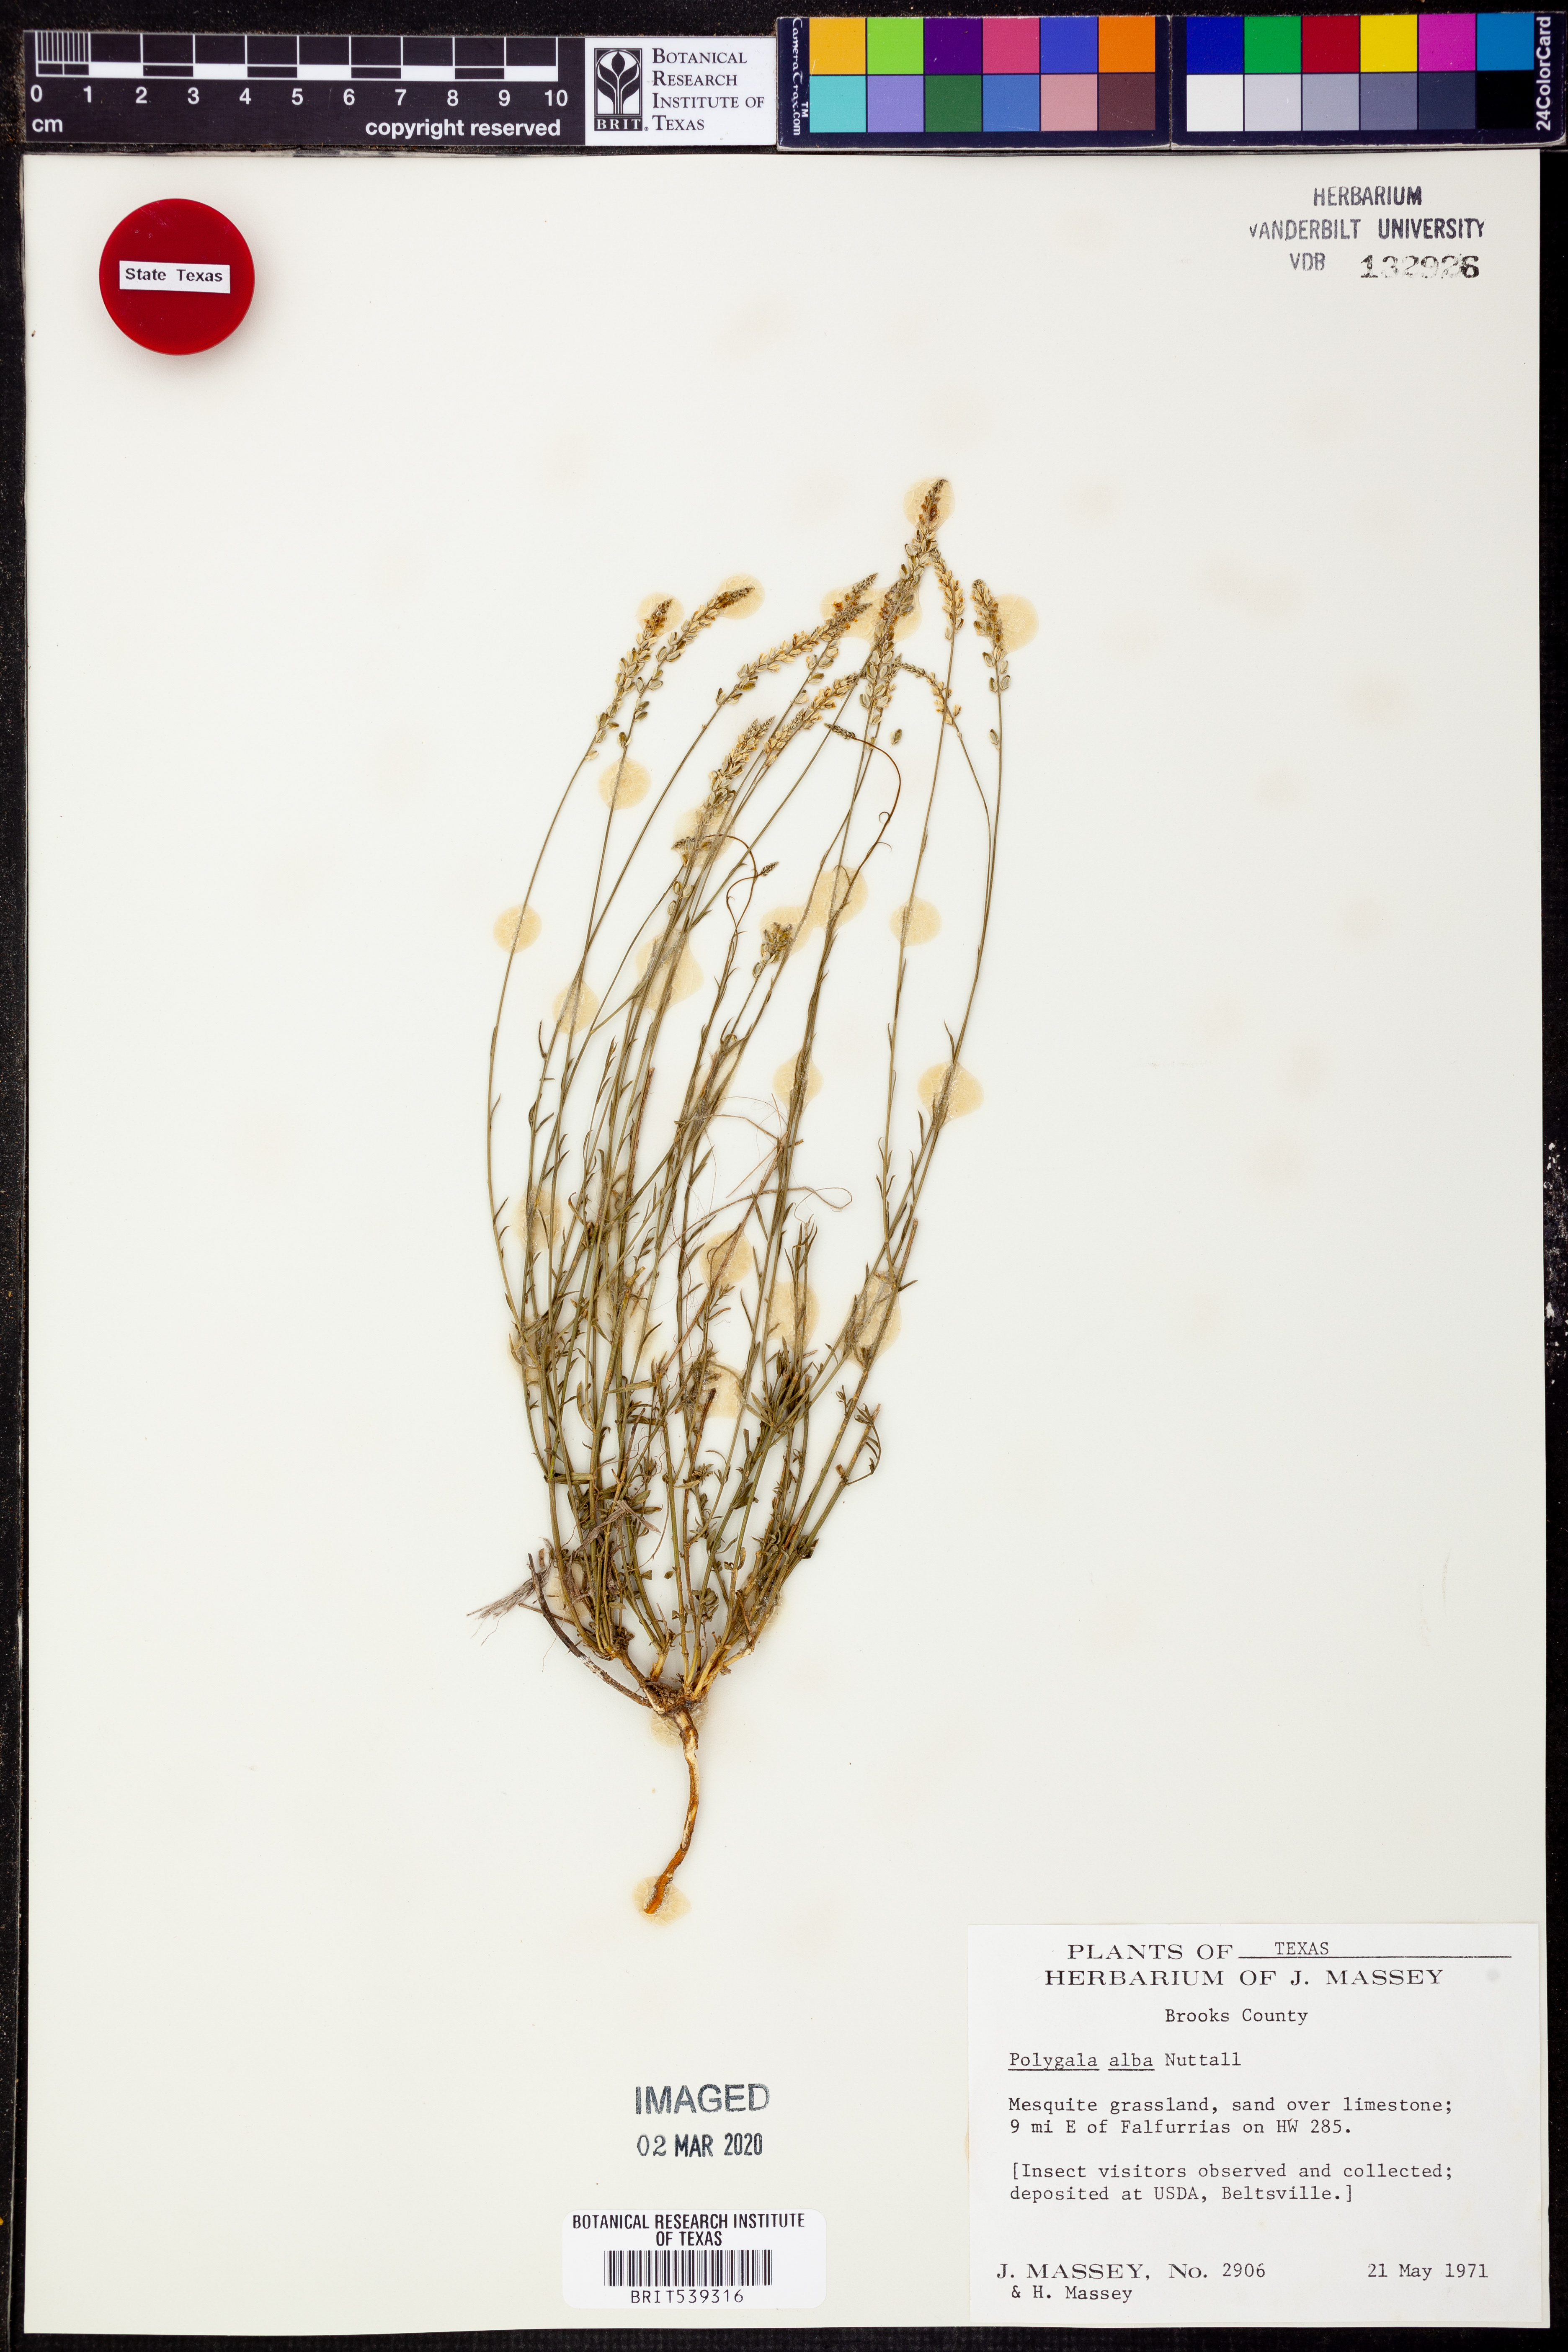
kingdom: Plantae
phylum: Tracheophyta
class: Magnoliopsida
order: Fabales
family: Polygalaceae
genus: Polygala
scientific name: Polygala alba
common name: White milkwort
